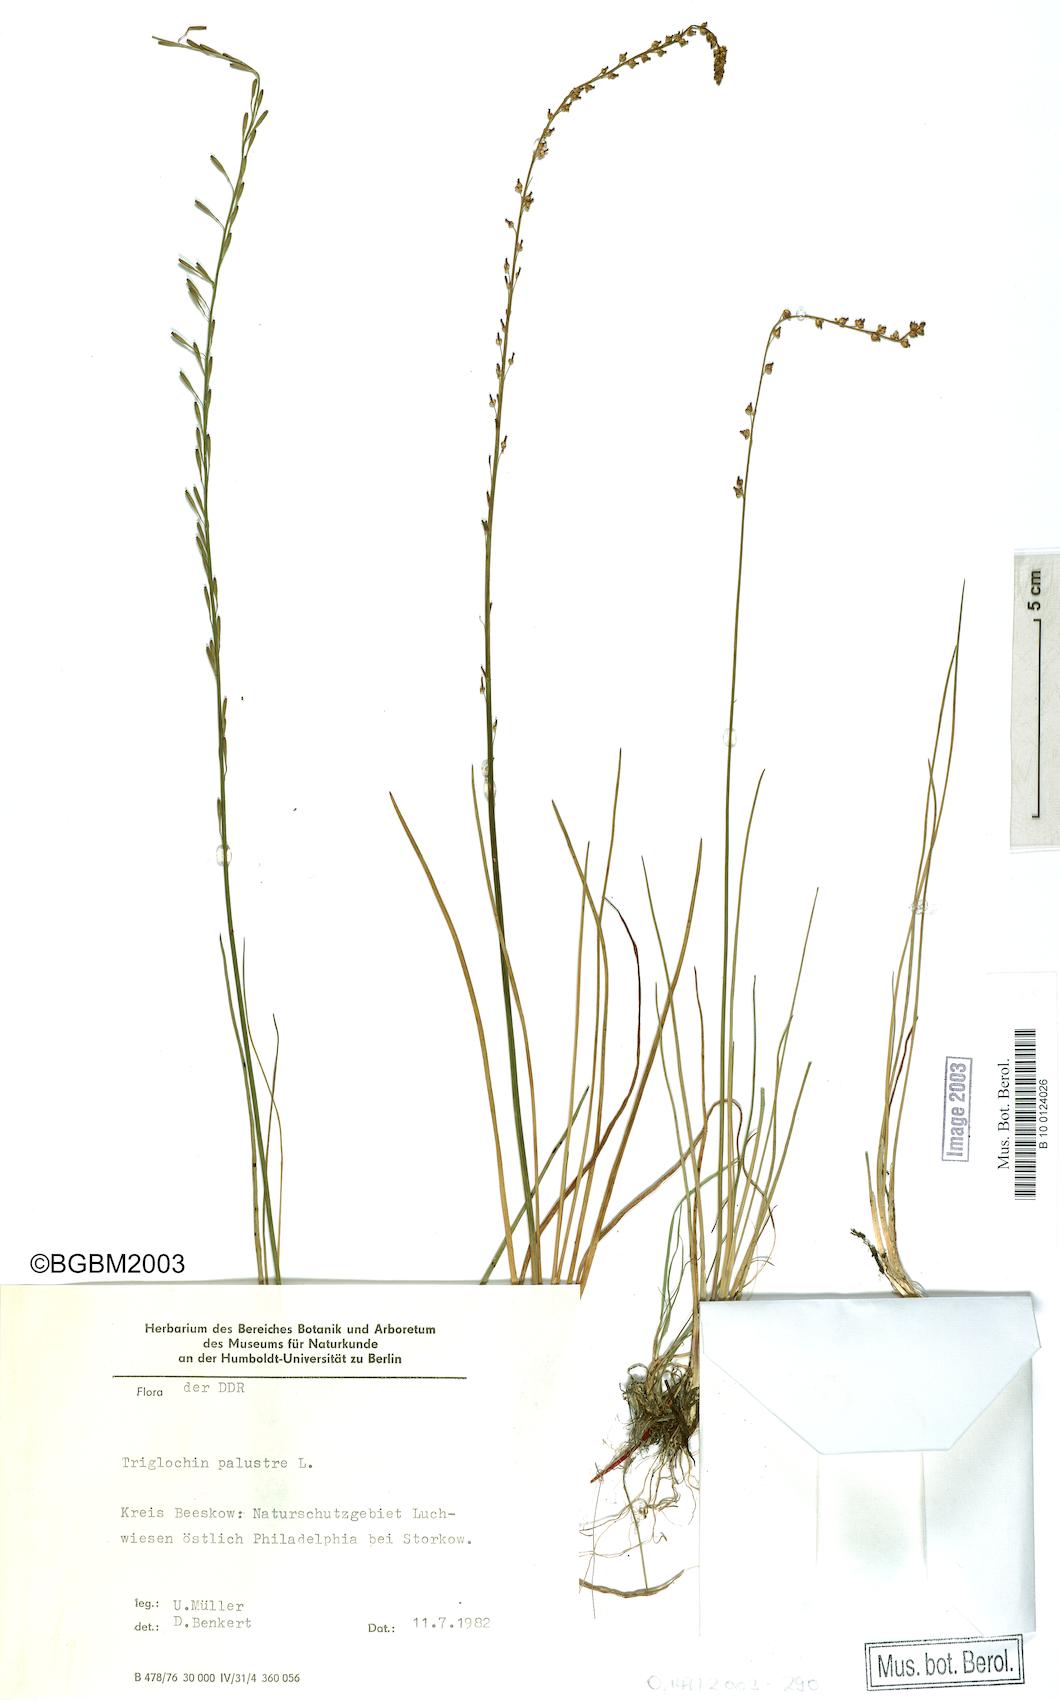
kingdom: Plantae
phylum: Tracheophyta
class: Liliopsida
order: Alismatales
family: Juncaginaceae
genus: Triglochin
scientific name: Triglochin palustris
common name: Marsh arrowgrass
